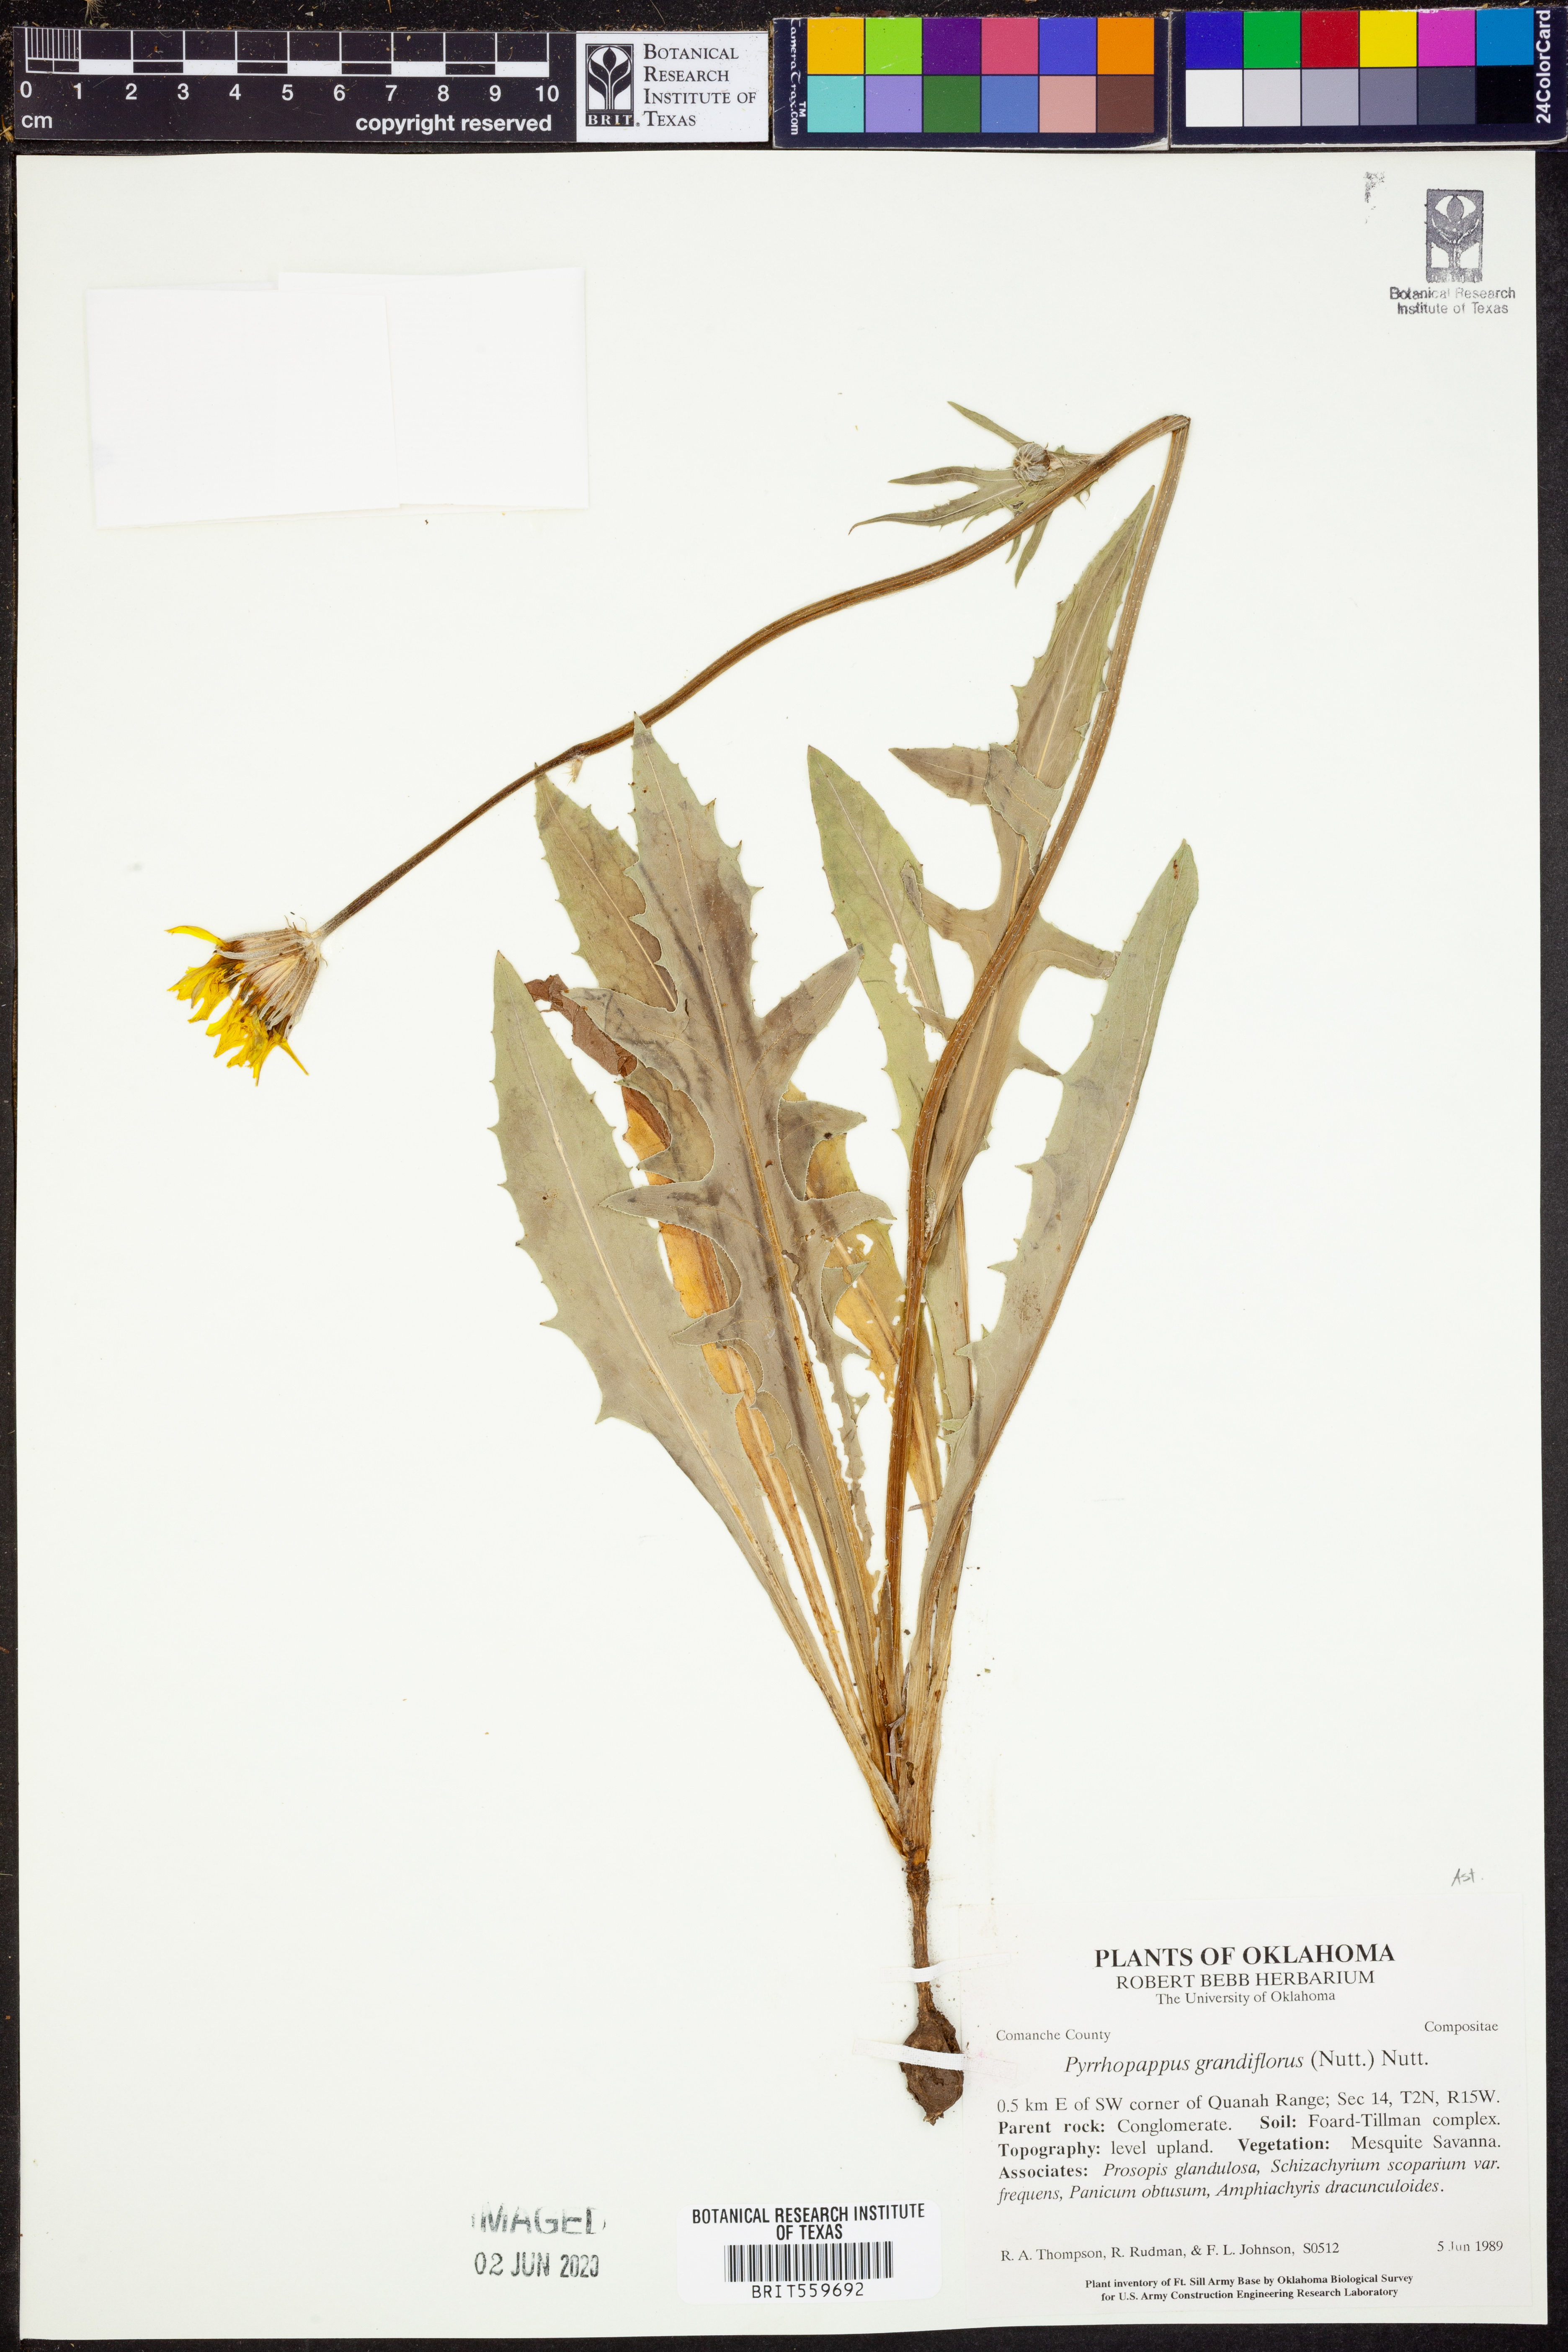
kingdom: Plantae
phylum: Tracheophyta
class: Magnoliopsida
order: Asterales
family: Asteraceae
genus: Pyrrhopappus
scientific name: Pyrrhopappus grandiflorus
